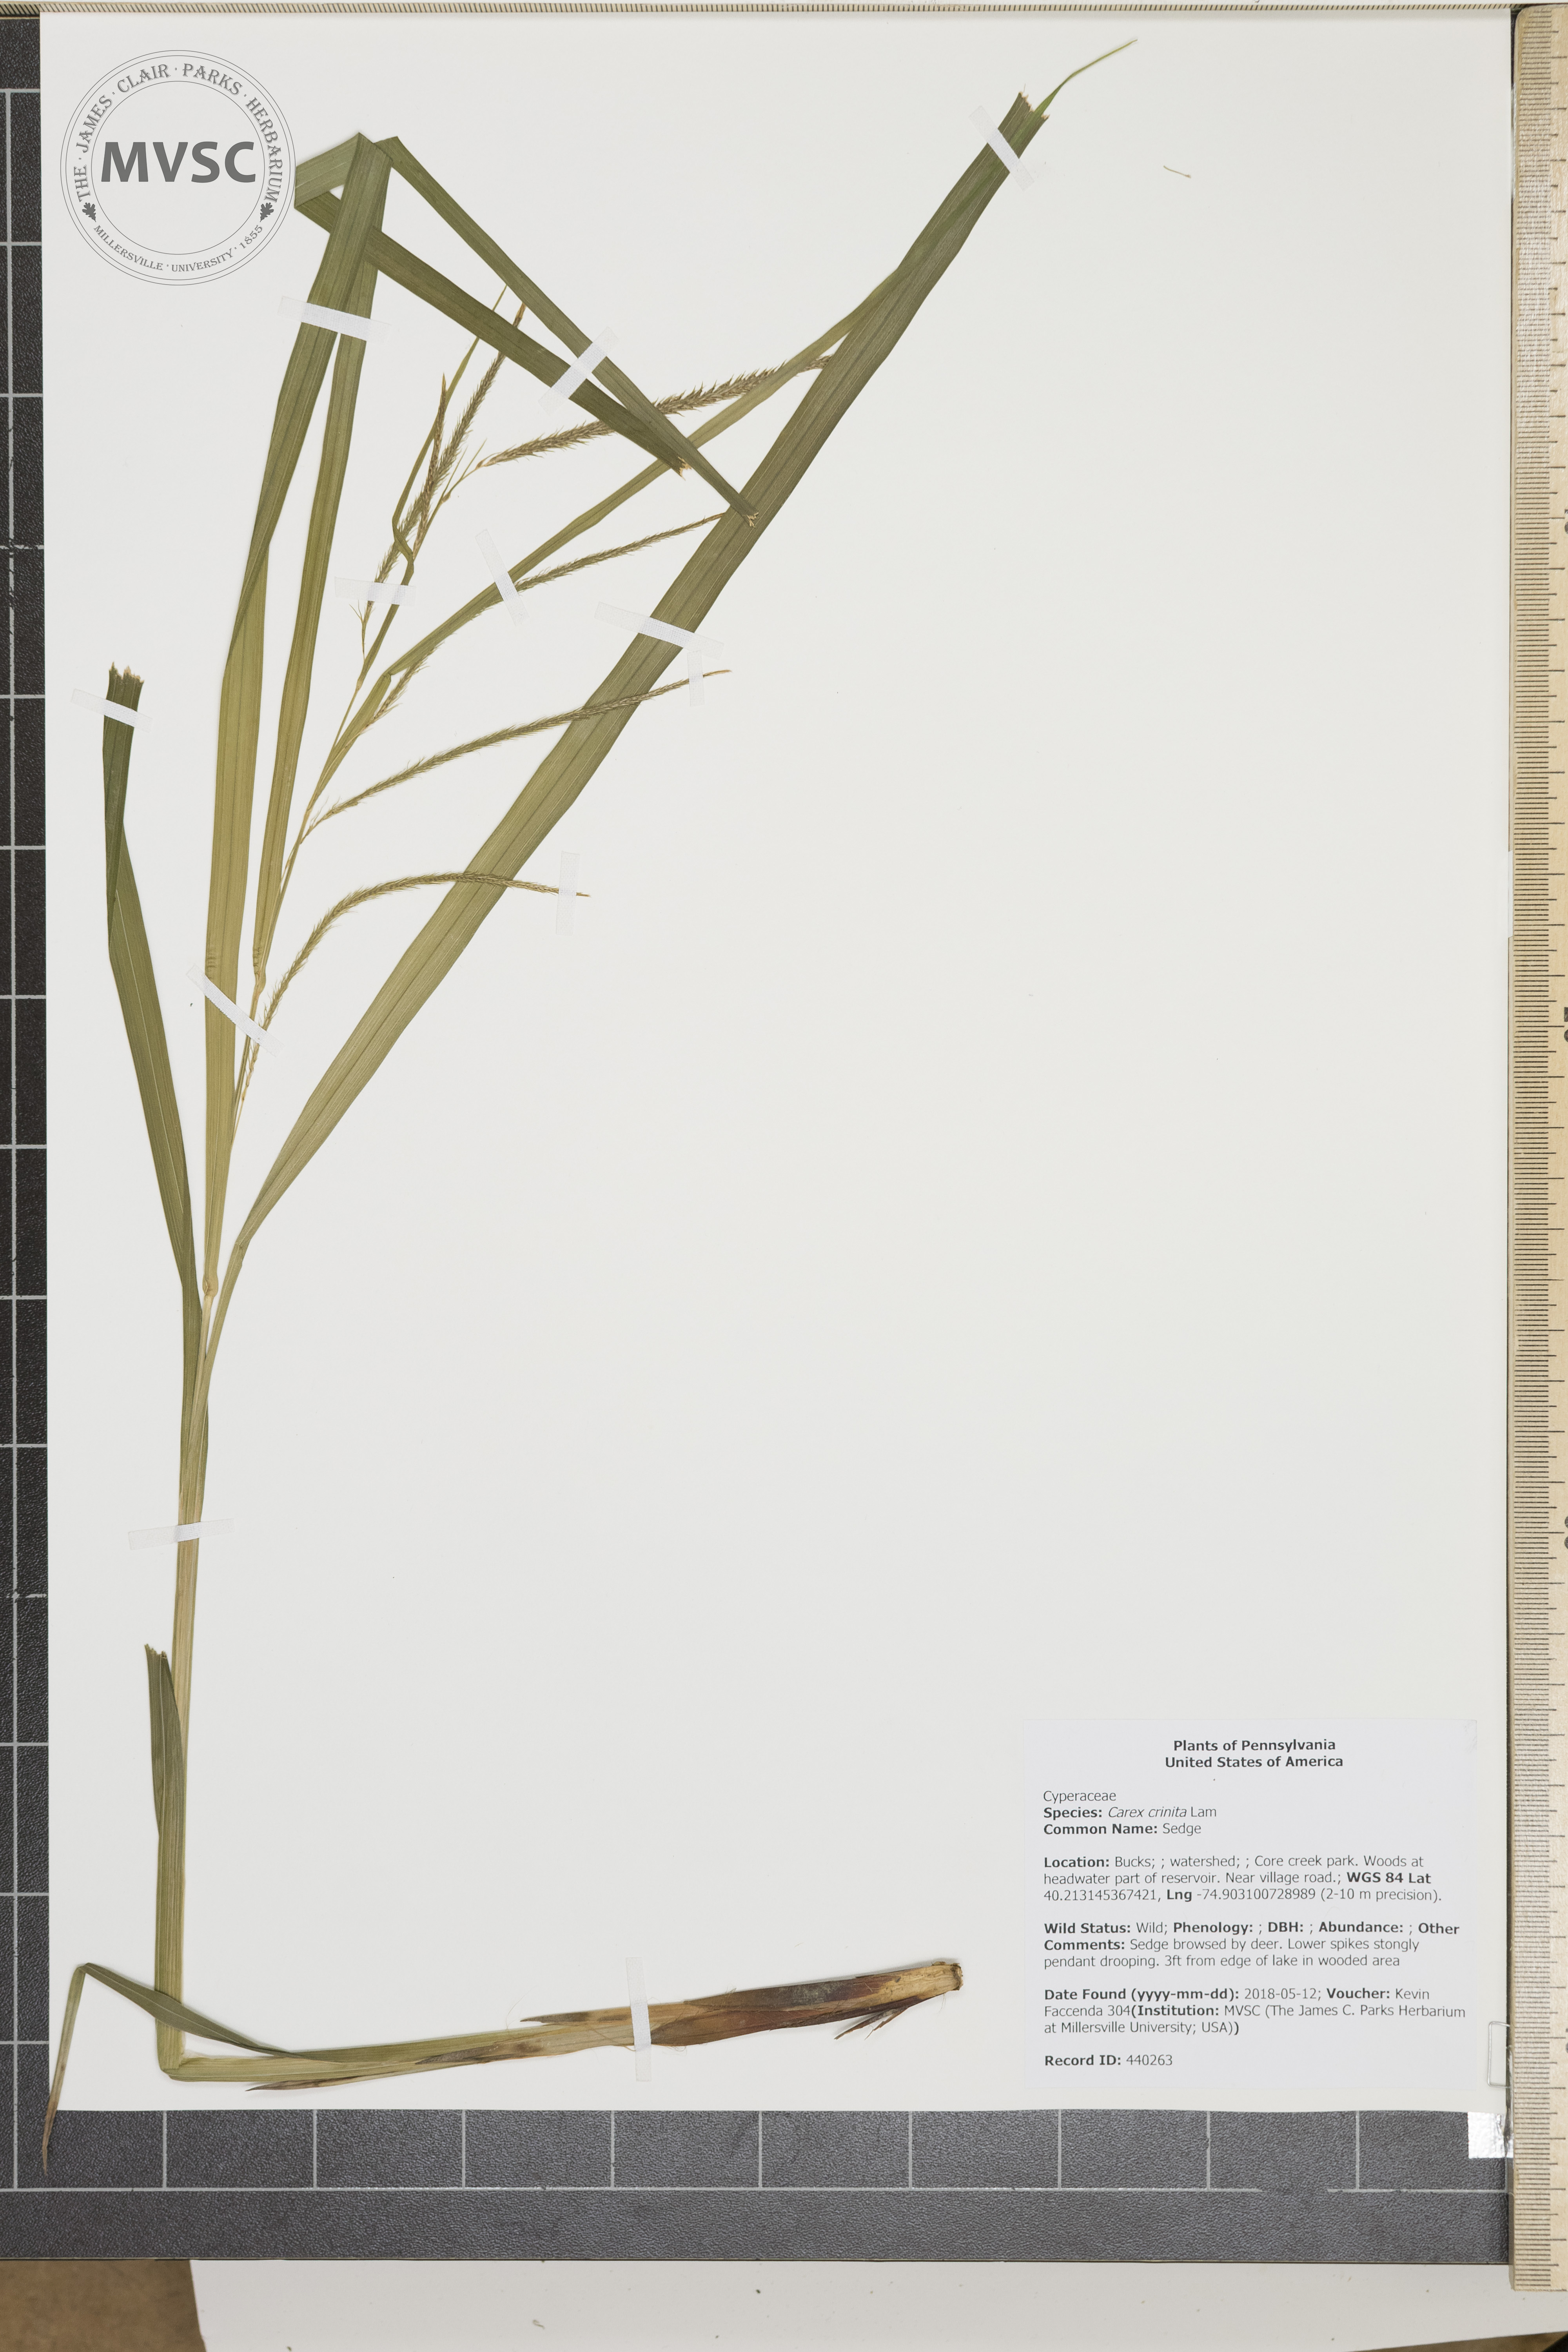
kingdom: Plantae
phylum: Tracheophyta
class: Liliopsida
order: Poales
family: Cyperaceae
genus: Carex
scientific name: Carex crinita
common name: Sedge
